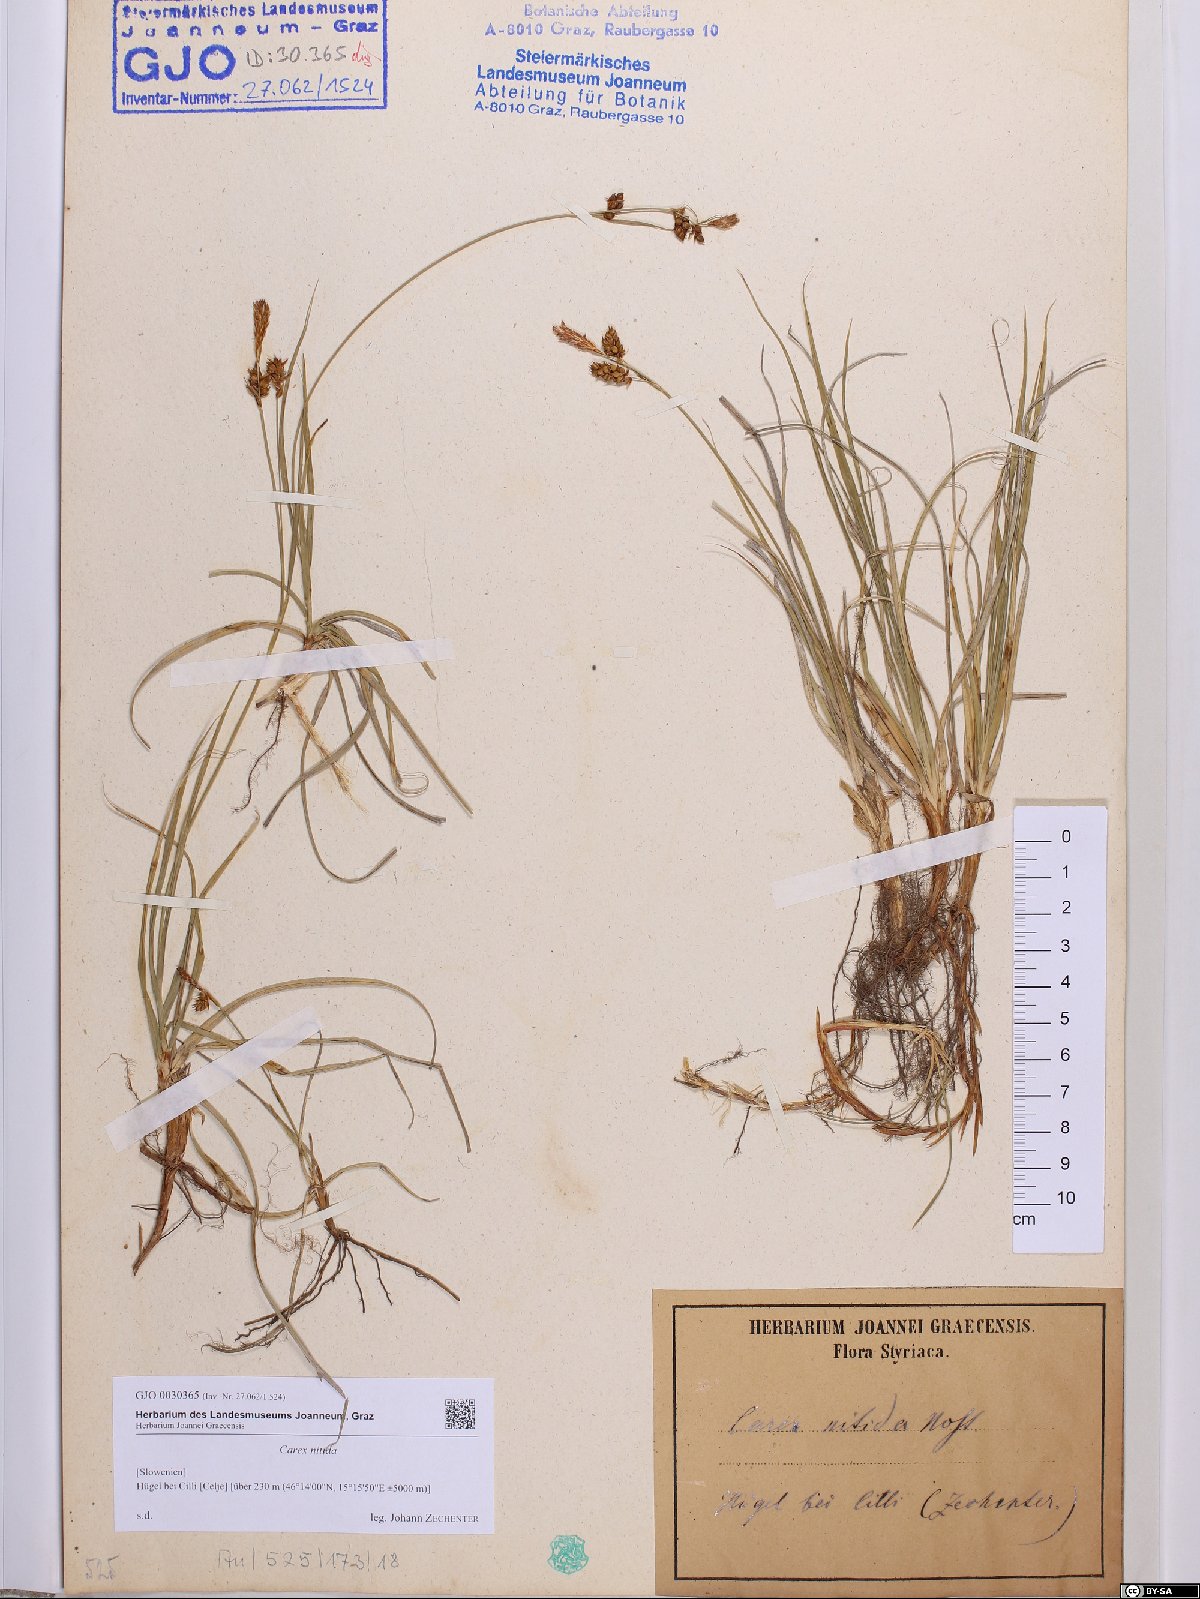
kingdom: Plantae
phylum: Tracheophyta
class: Liliopsida
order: Poales
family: Cyperaceae
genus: Carex
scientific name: Carex liparocarpos
